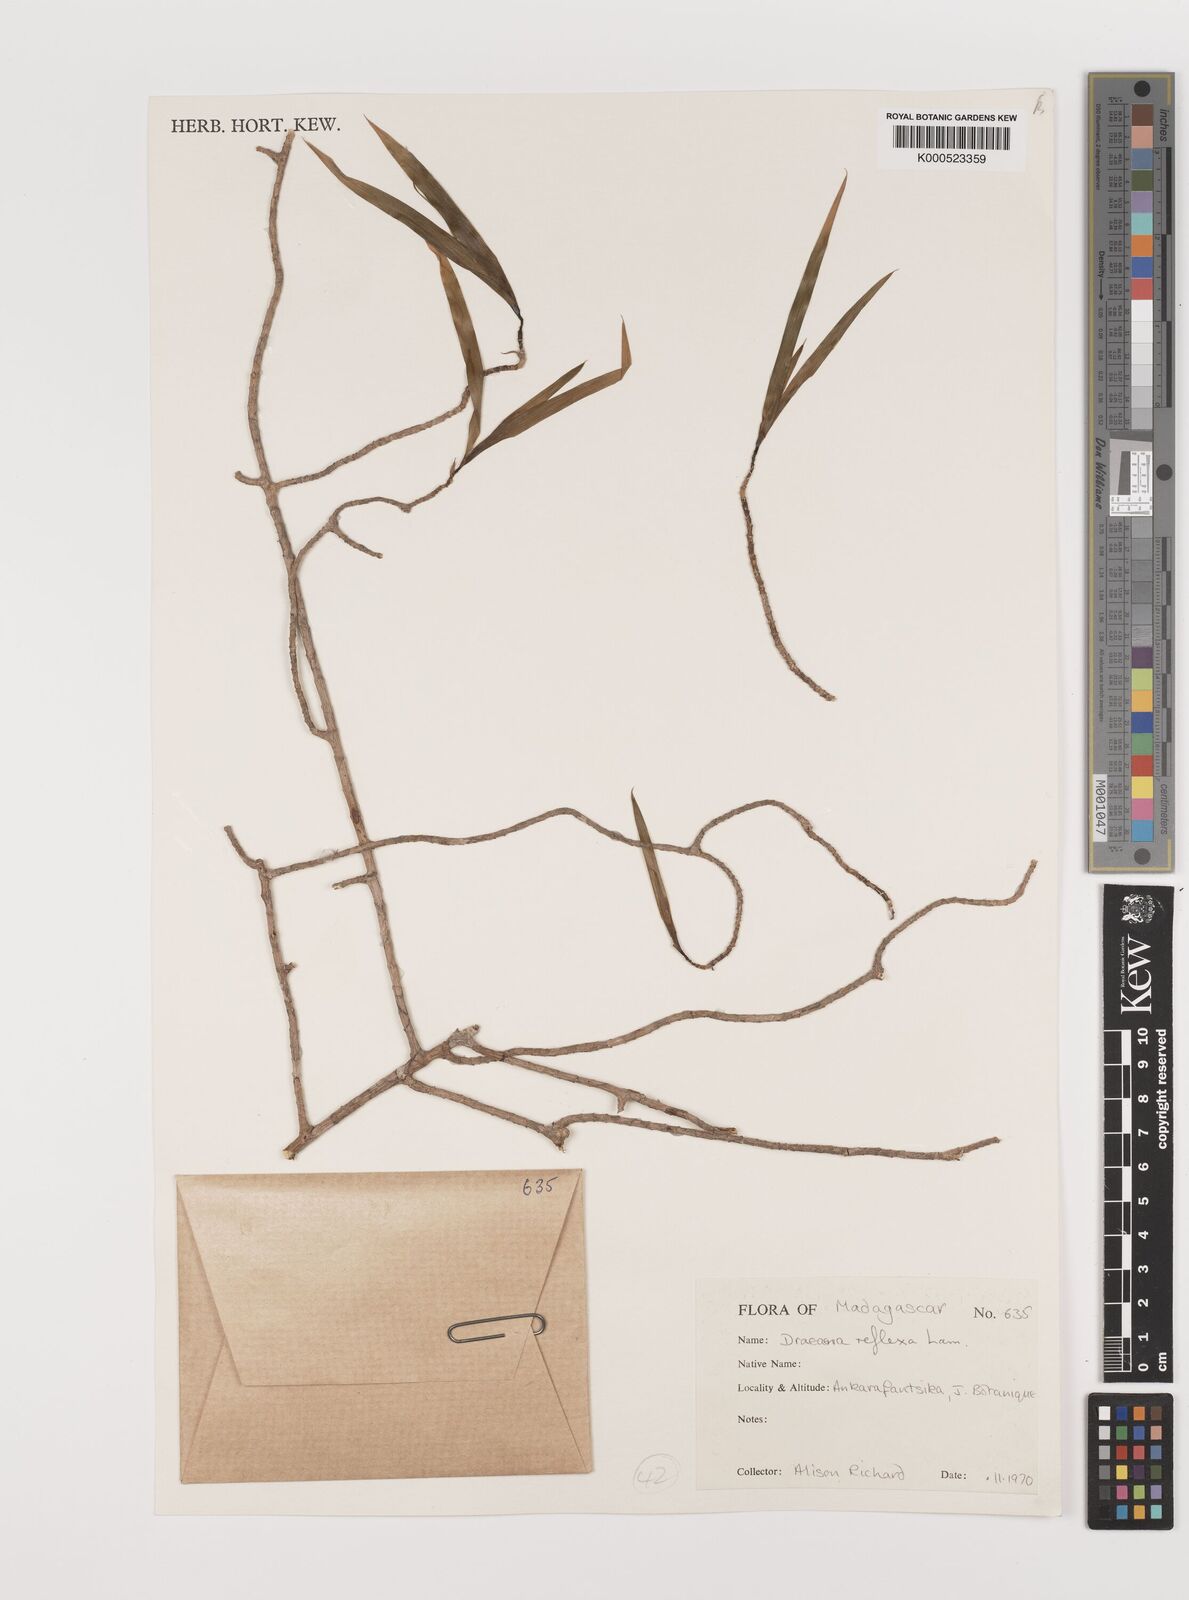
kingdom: Plantae
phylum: Tracheophyta
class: Liliopsida
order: Asparagales
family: Asparagaceae
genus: Dracaena
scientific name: Dracaena reflexa
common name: Song-of-india
